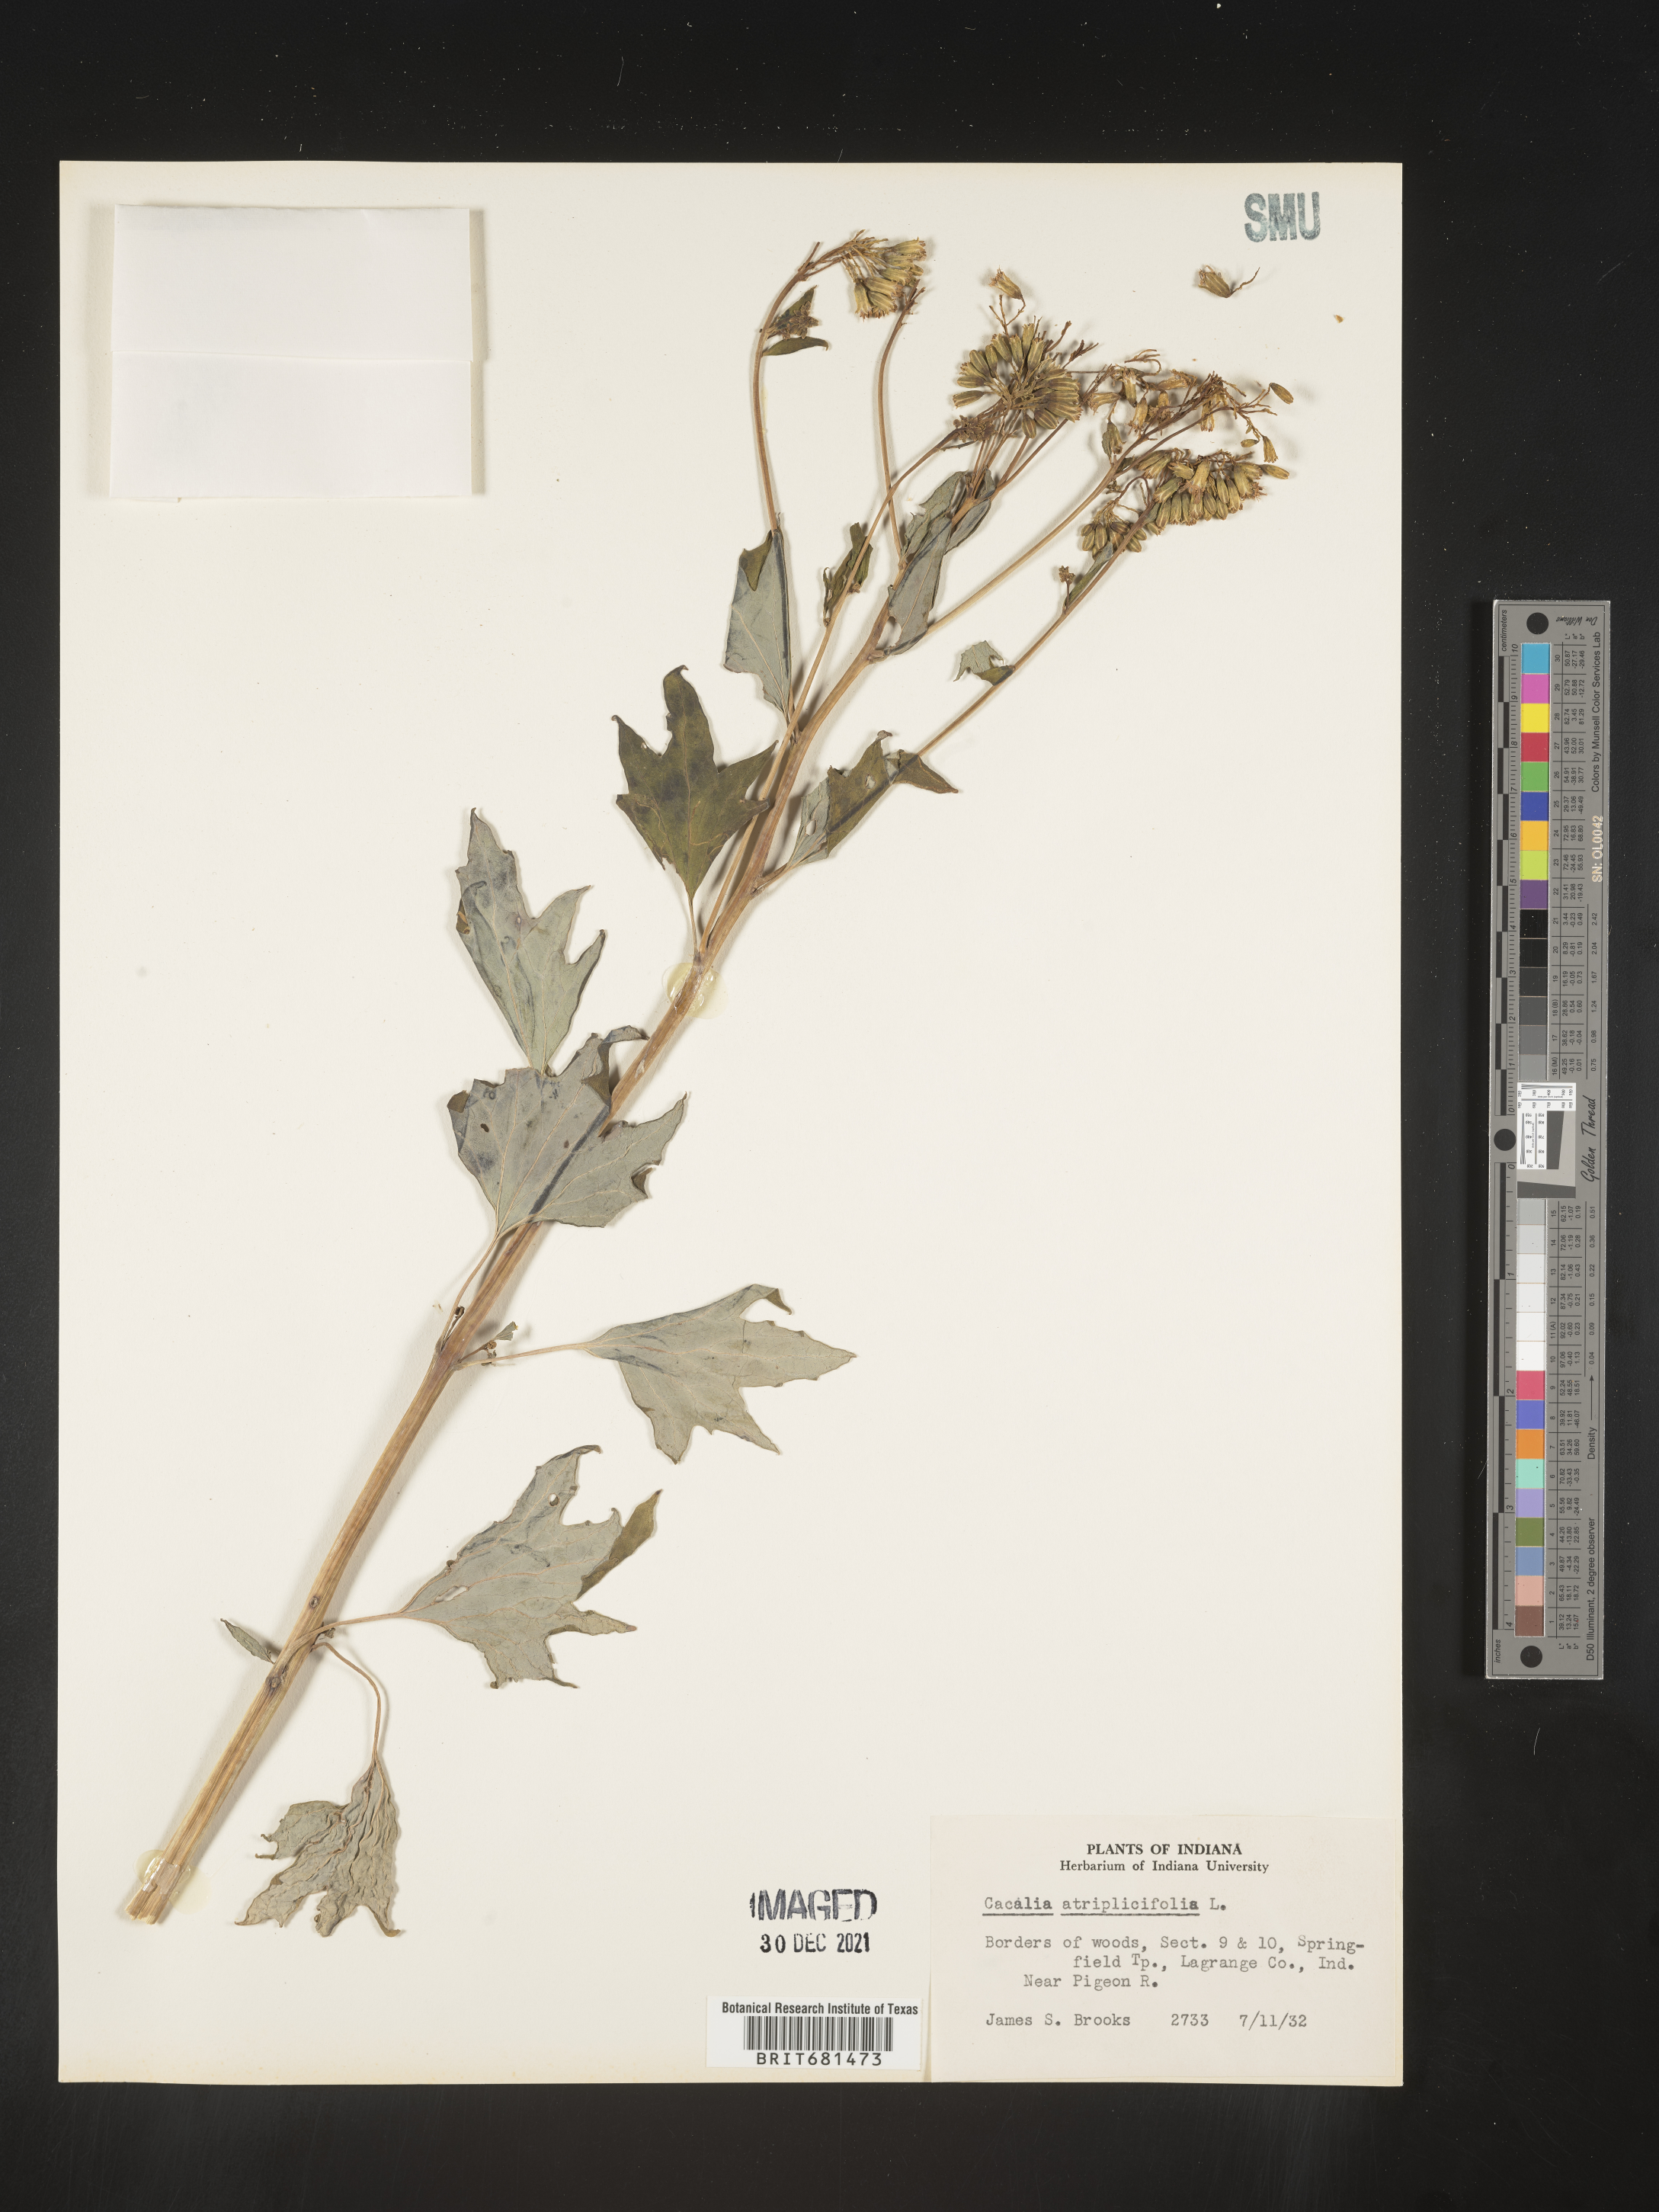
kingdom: Plantae
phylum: Tracheophyta
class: Magnoliopsida
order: Asterales
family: Asteraceae
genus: Arnoglossum
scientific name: Arnoglossum atriplicifolium
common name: Pale indian-plantain
